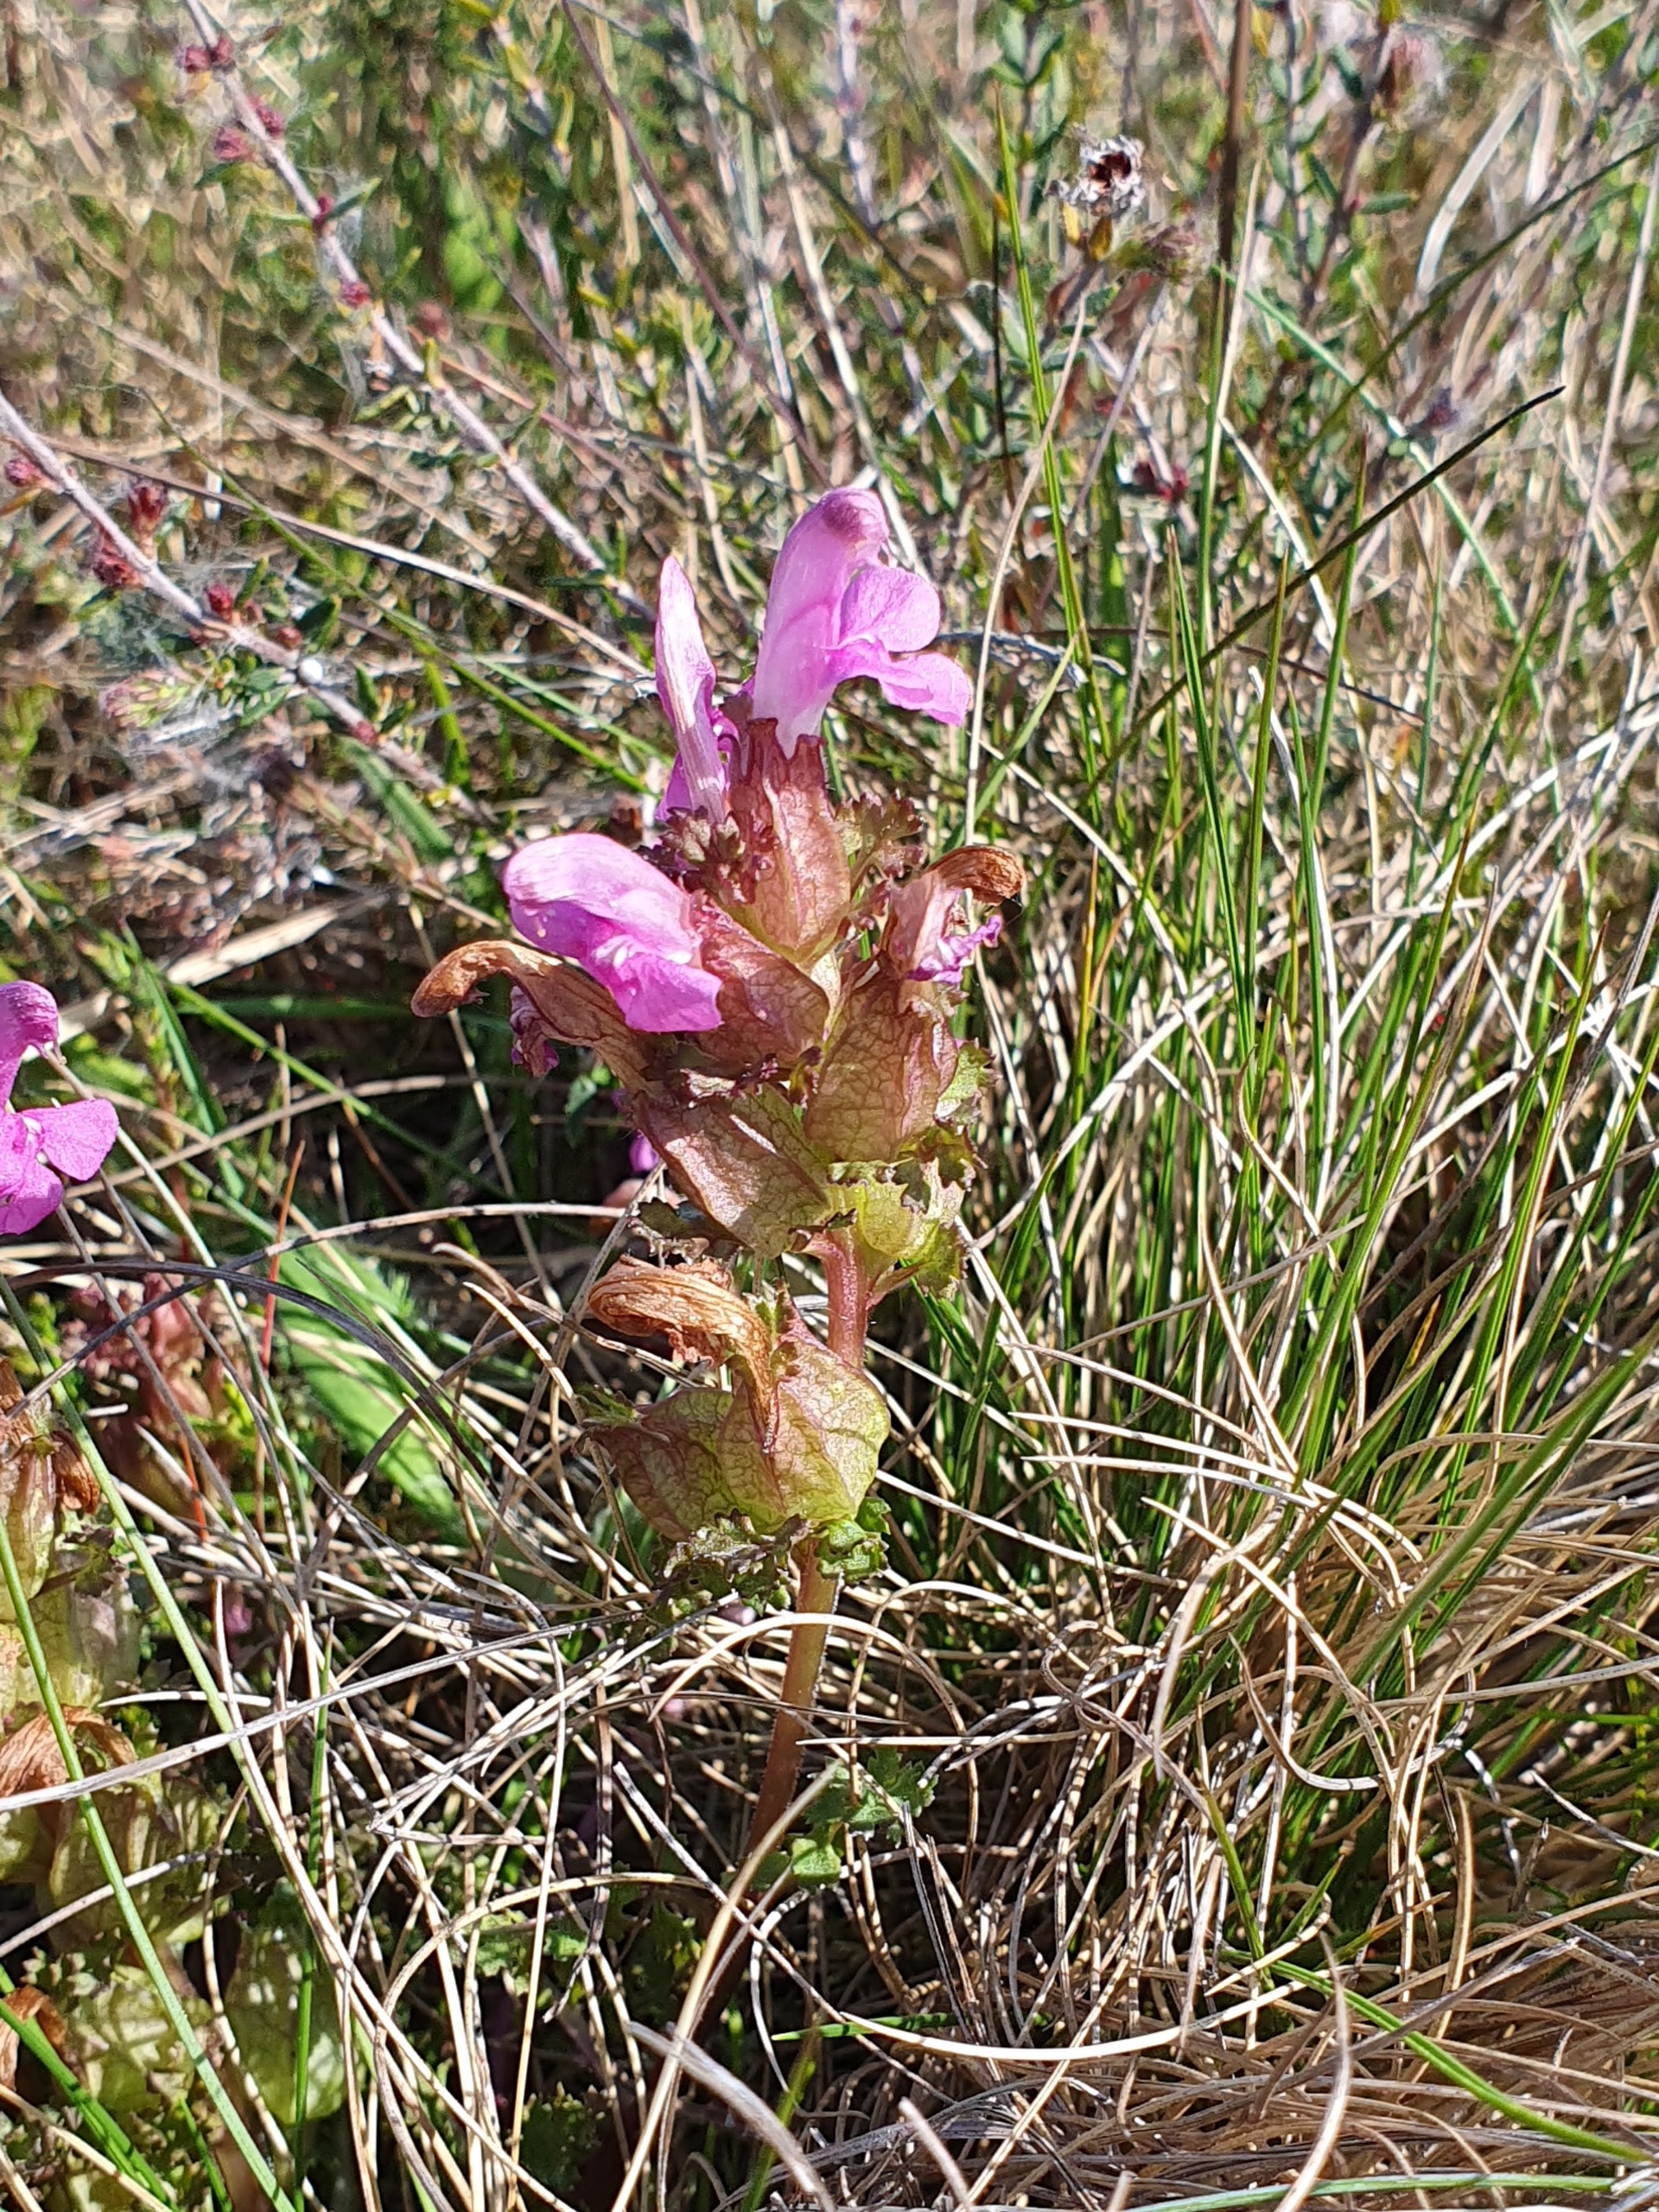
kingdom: Plantae
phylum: Tracheophyta
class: Magnoliopsida
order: Lamiales
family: Orobanchaceae
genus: Pedicularis
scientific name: Pedicularis sylvatica
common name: Mose-troldurt
